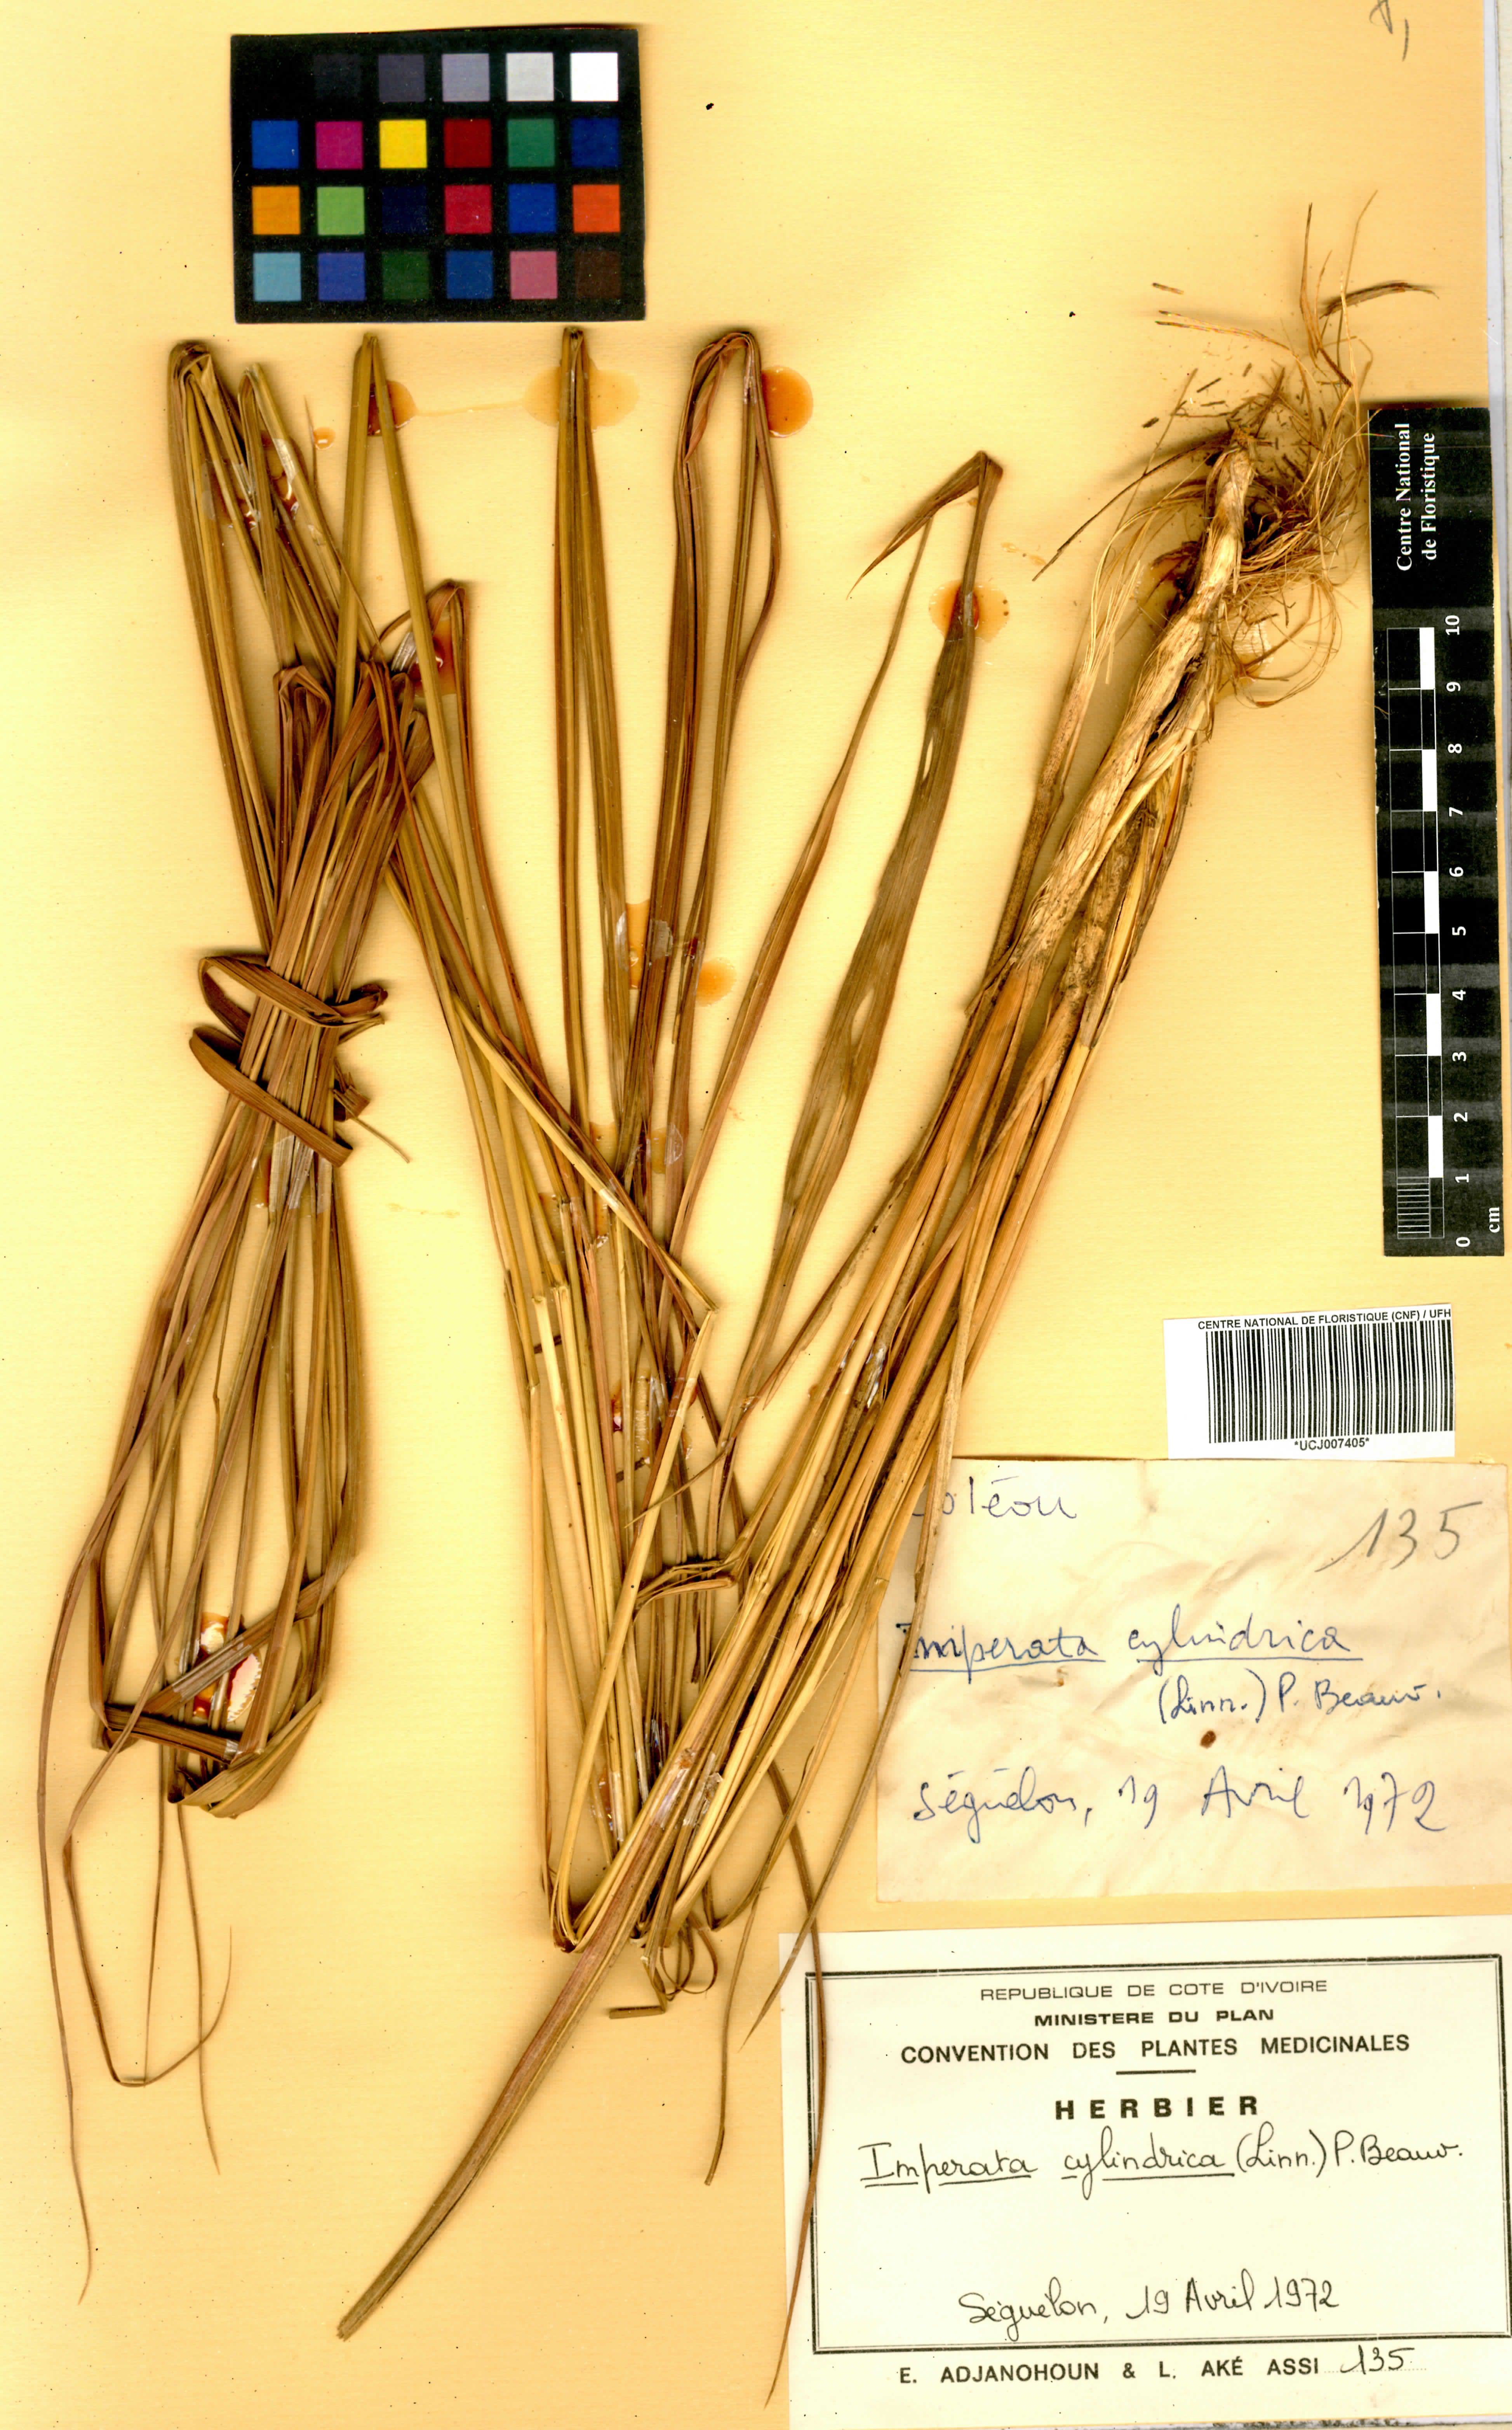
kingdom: Plantae
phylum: Tracheophyta
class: Liliopsida
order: Poales
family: Poaceae
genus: Imperata
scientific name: Imperata cylindrica
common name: Cogongrass
